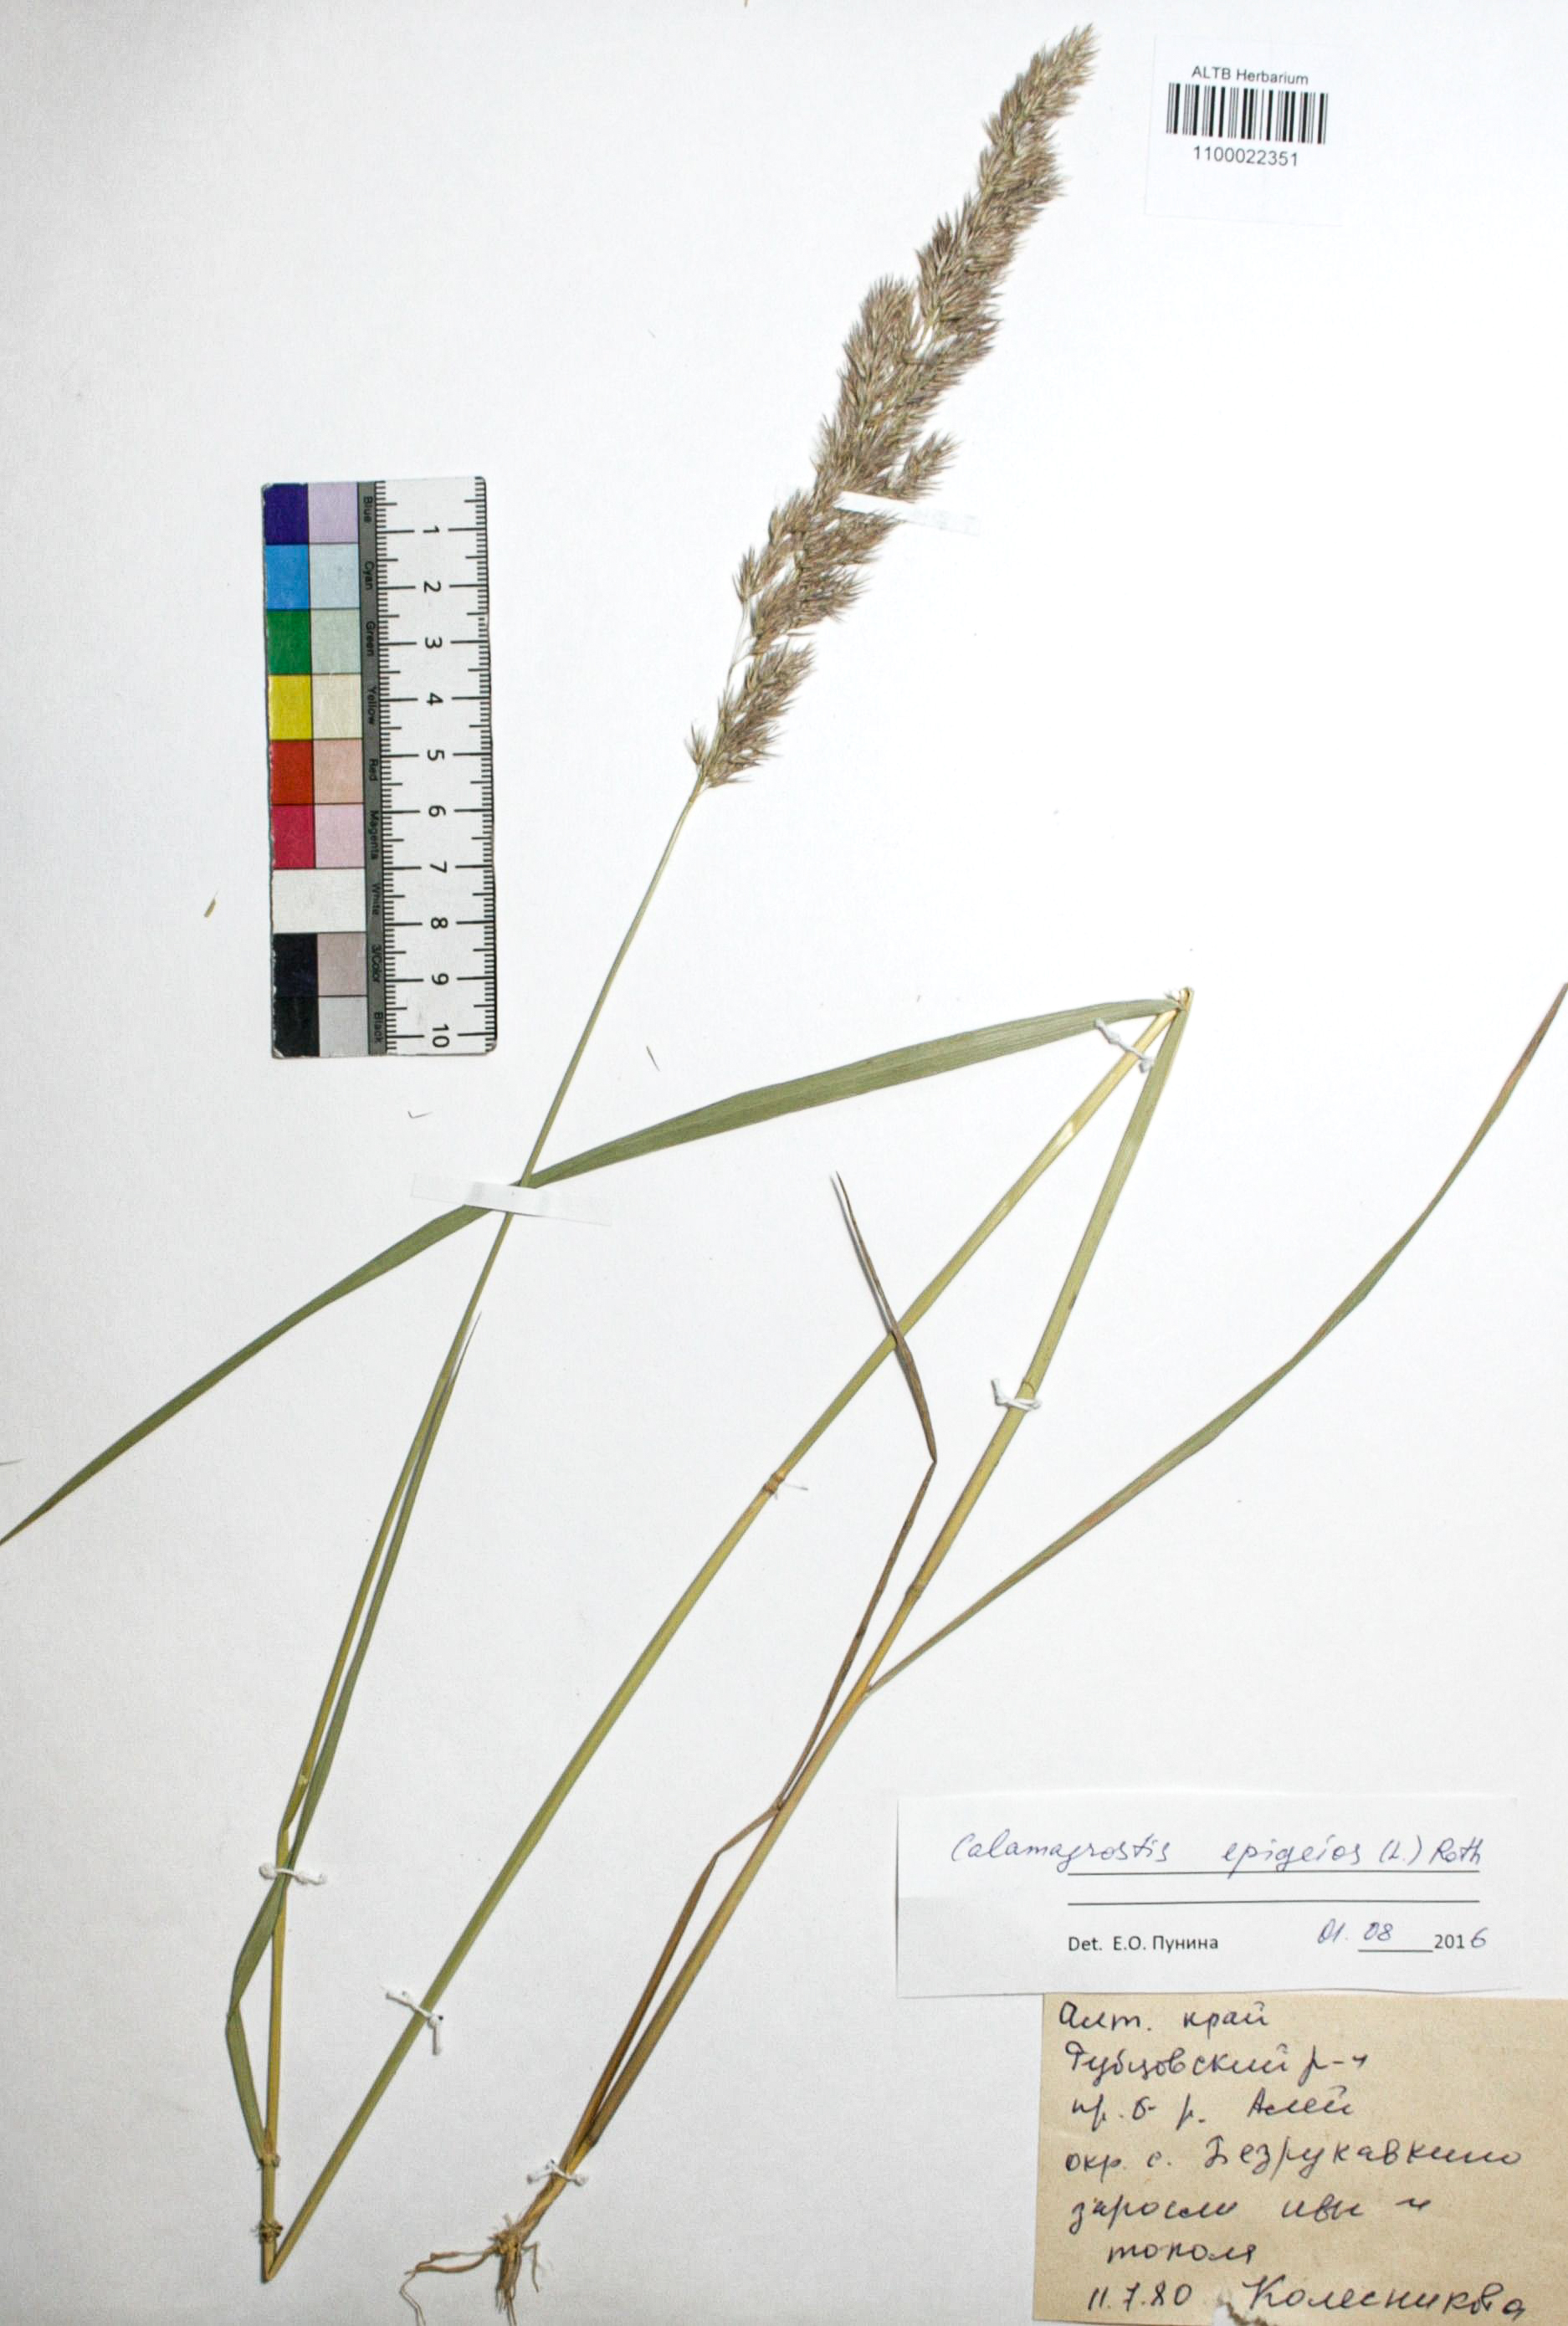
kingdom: Plantae
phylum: Tracheophyta
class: Liliopsida
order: Poales
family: Poaceae
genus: Calamagrostis
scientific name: Calamagrostis epigejos
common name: Wood small-reed
